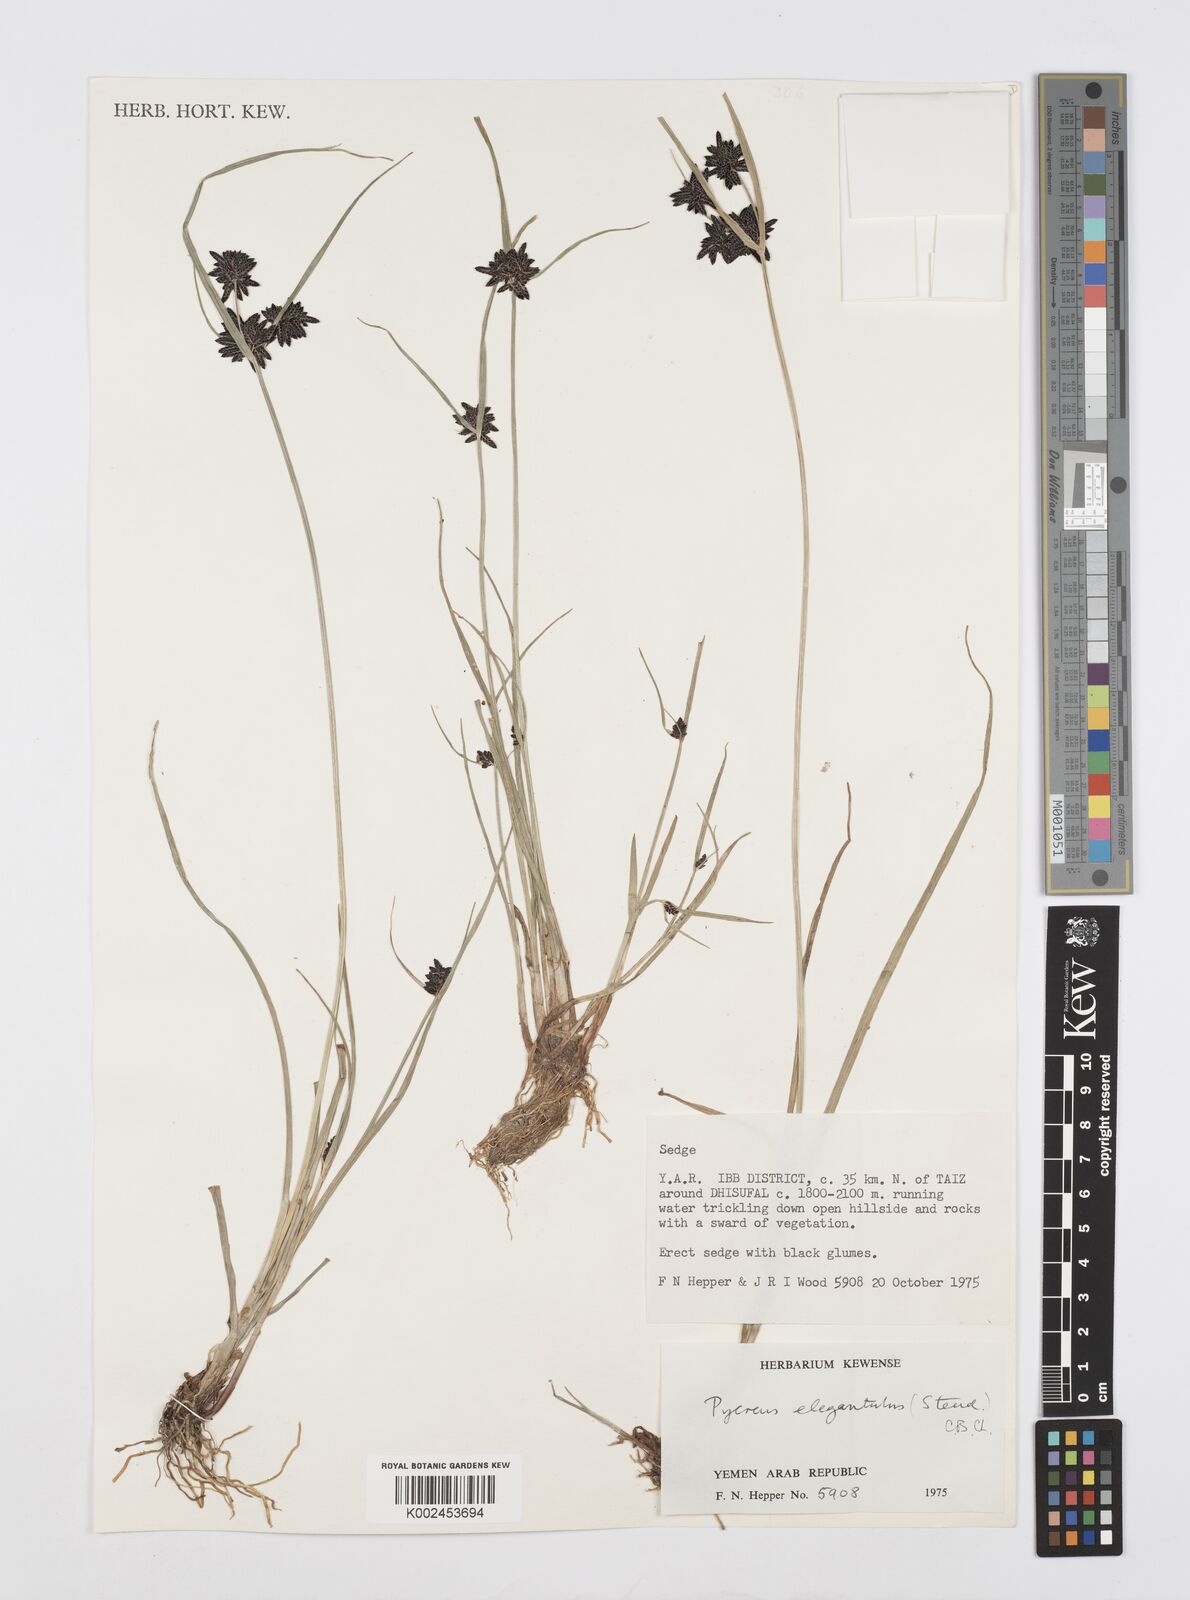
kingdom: Plantae
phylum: Tracheophyta
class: Liliopsida
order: Poales
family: Cyperaceae
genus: Cyperus
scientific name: Cyperus elegantulus
